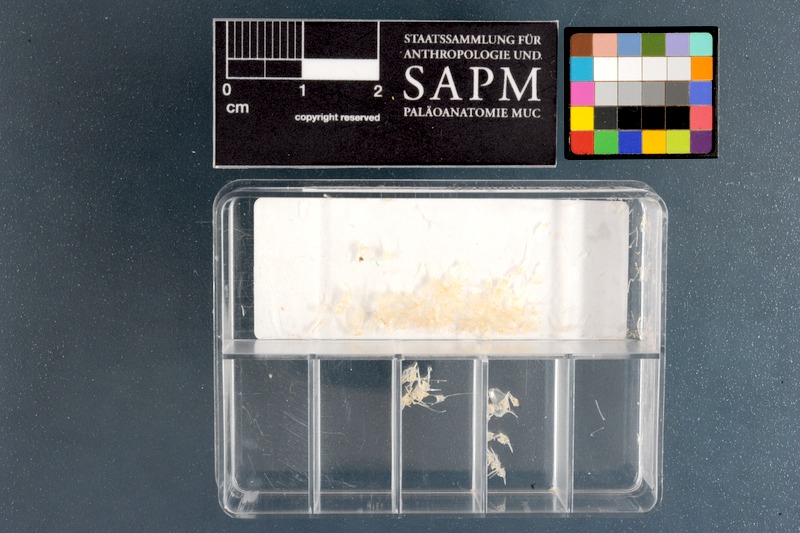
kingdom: Animalia
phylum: Chordata
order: Perciformes
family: Clinidae
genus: Xenopoclinus
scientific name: Xenopoclinus leprosus
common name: Leprous platanna-klipfish
